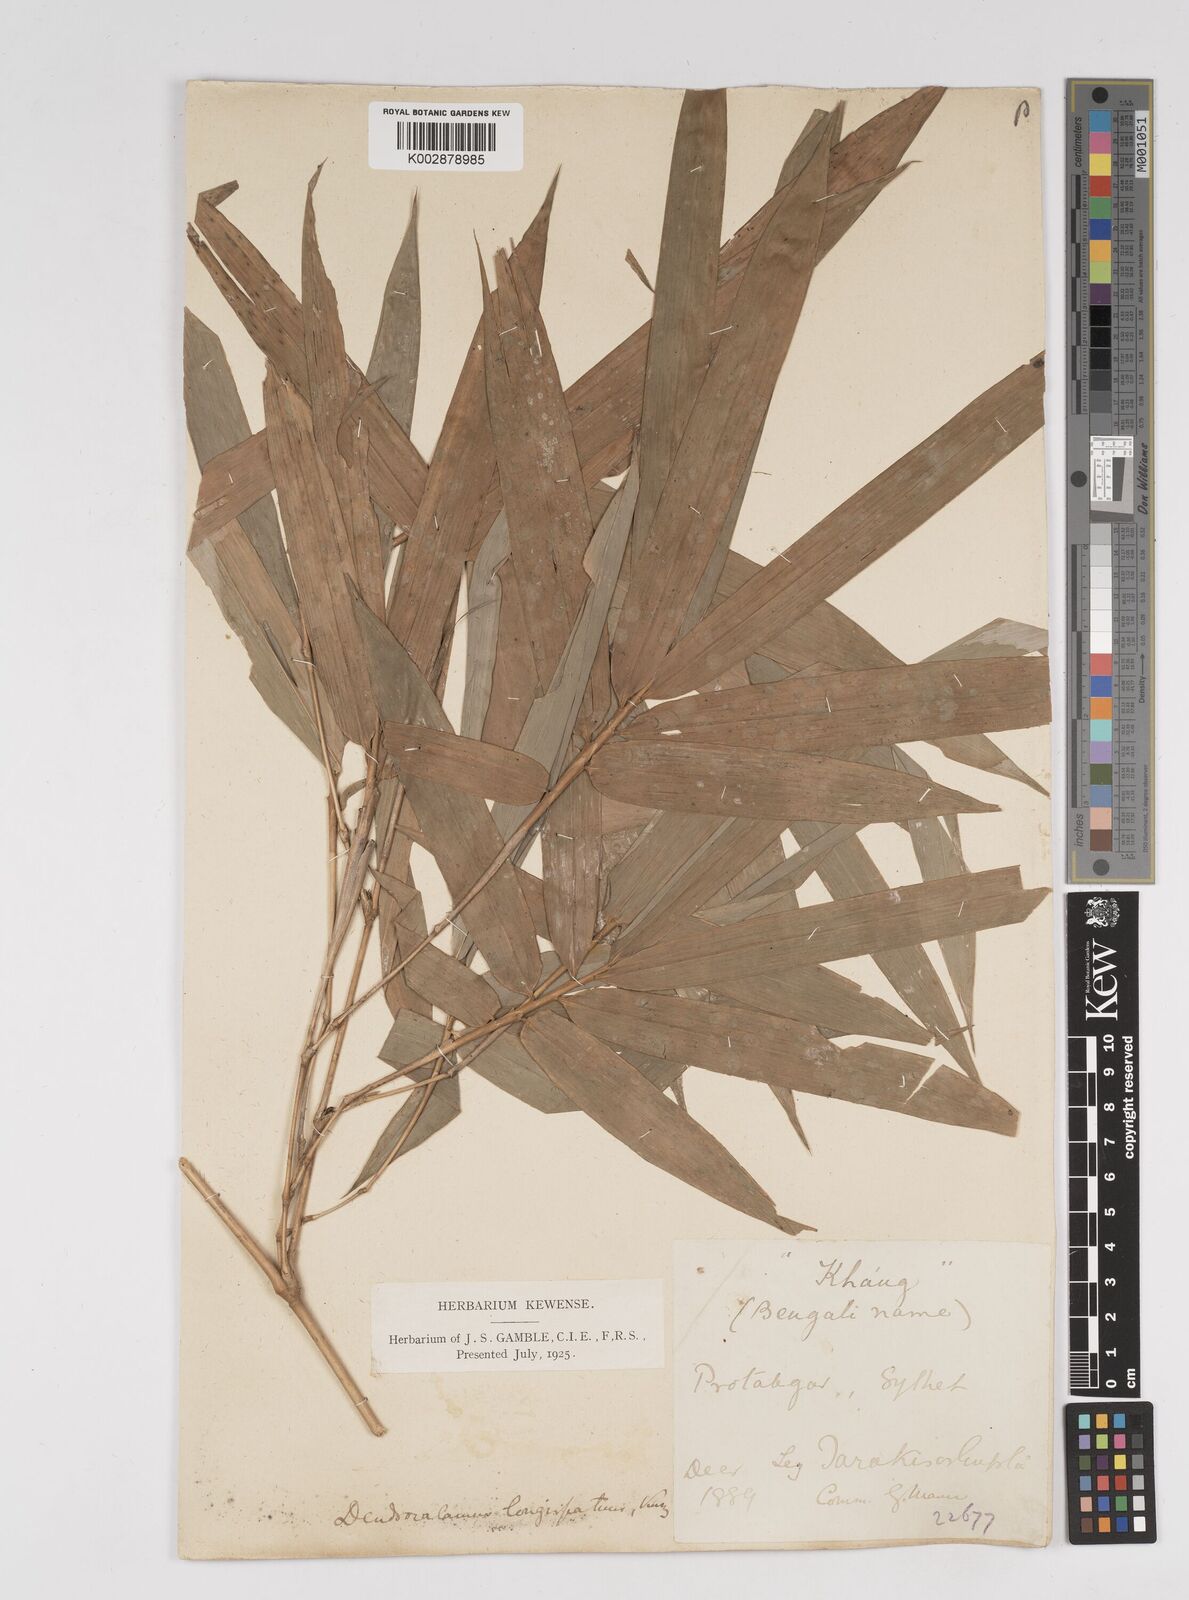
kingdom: Plantae
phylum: Tracheophyta
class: Liliopsida
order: Poales
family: Poaceae
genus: Dendrocalamus
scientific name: Dendrocalamus longispathus
